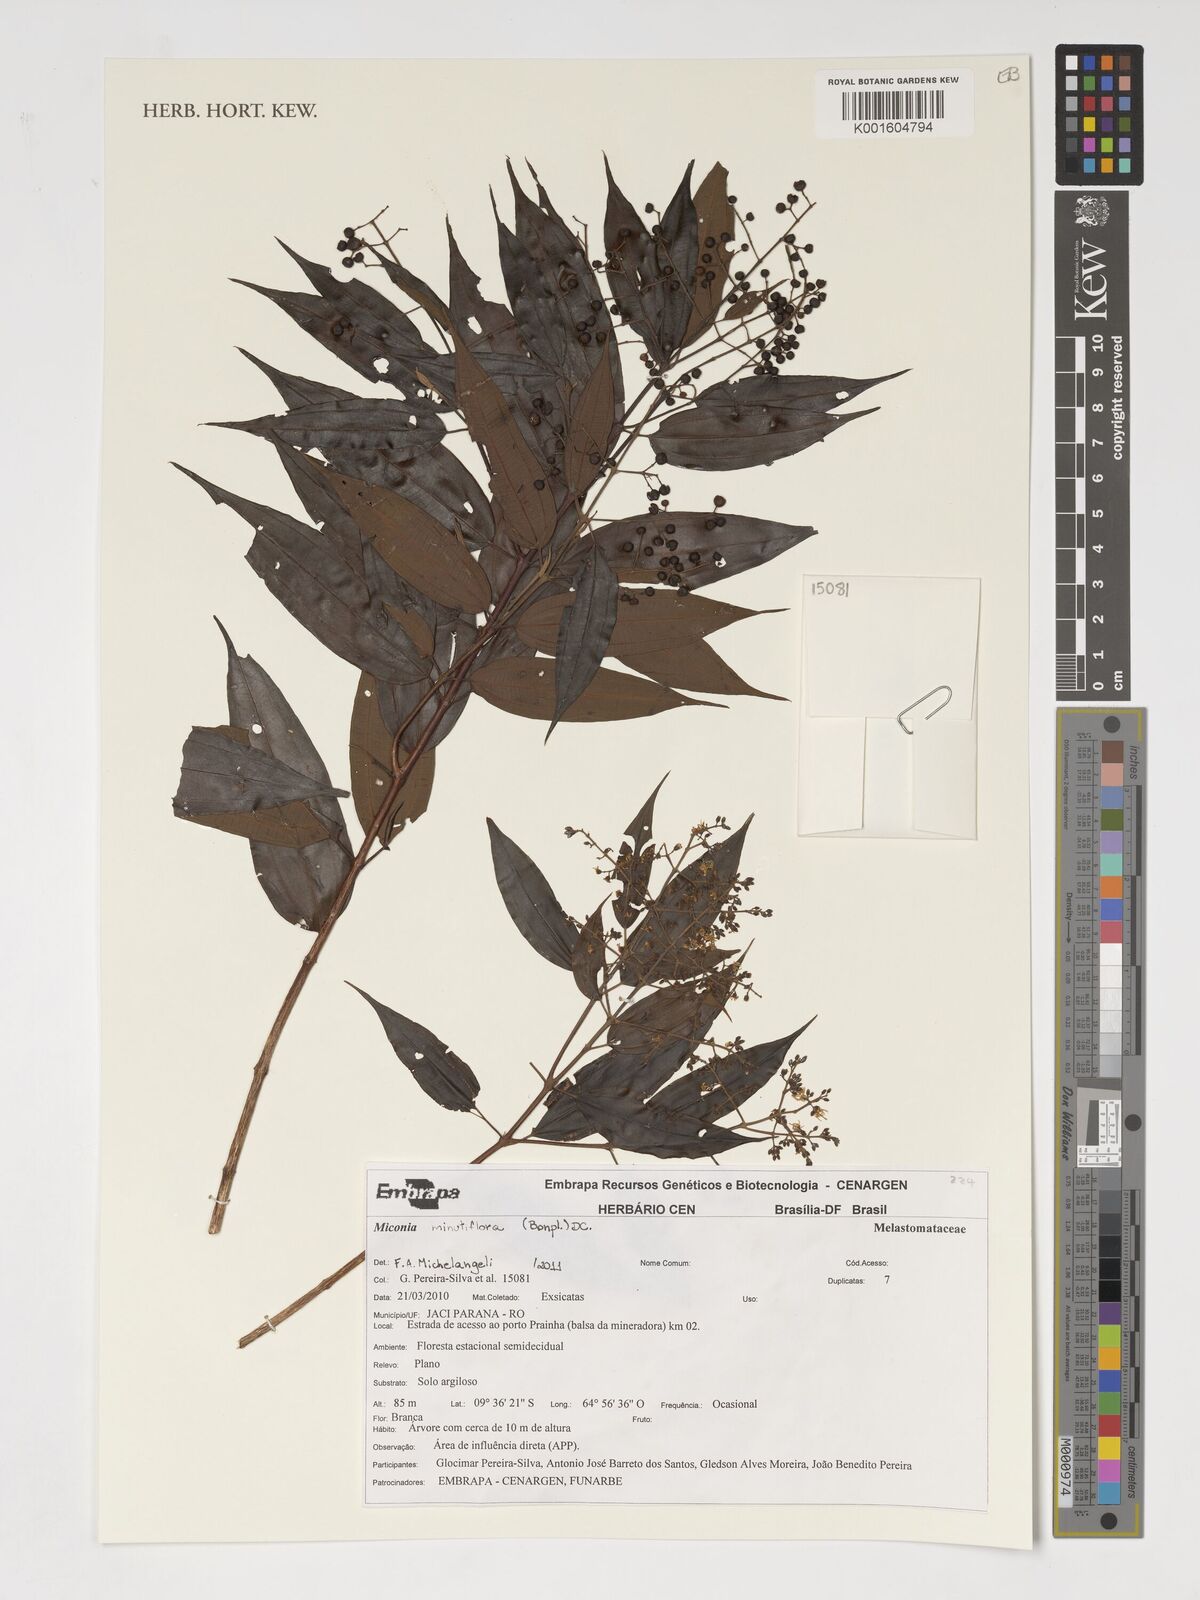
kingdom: Plantae
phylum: Tracheophyta
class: Magnoliopsida
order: Myrtales
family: Melastomataceae
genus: Miconia
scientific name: Miconia minutiflora
